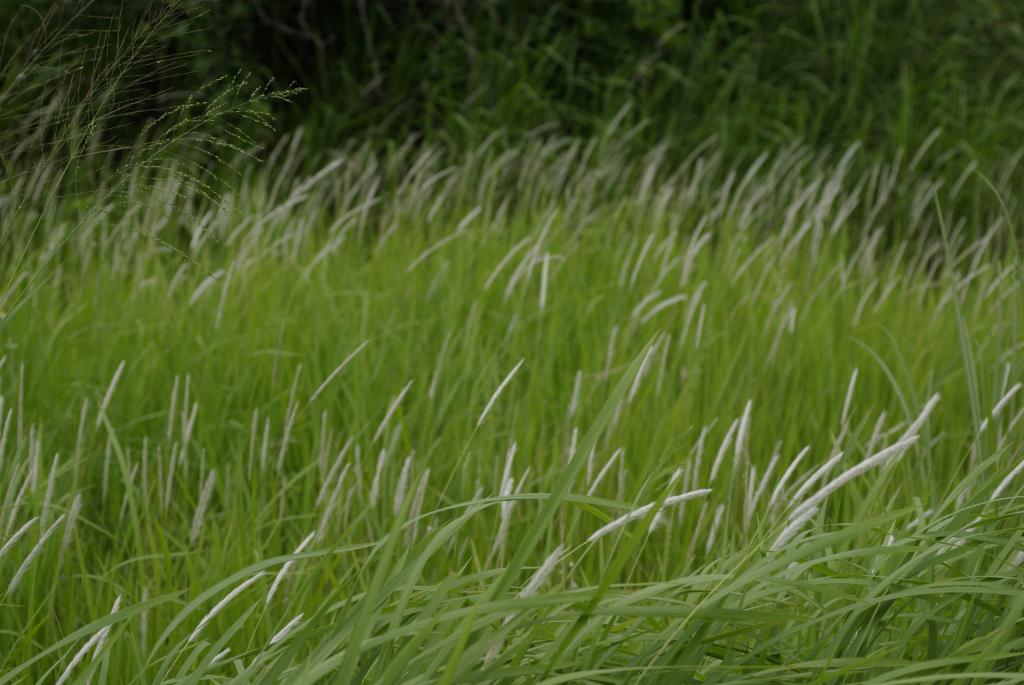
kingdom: Plantae
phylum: Tracheophyta
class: Liliopsida
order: Poales
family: Poaceae
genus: Imperata
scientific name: Imperata cylindrica
